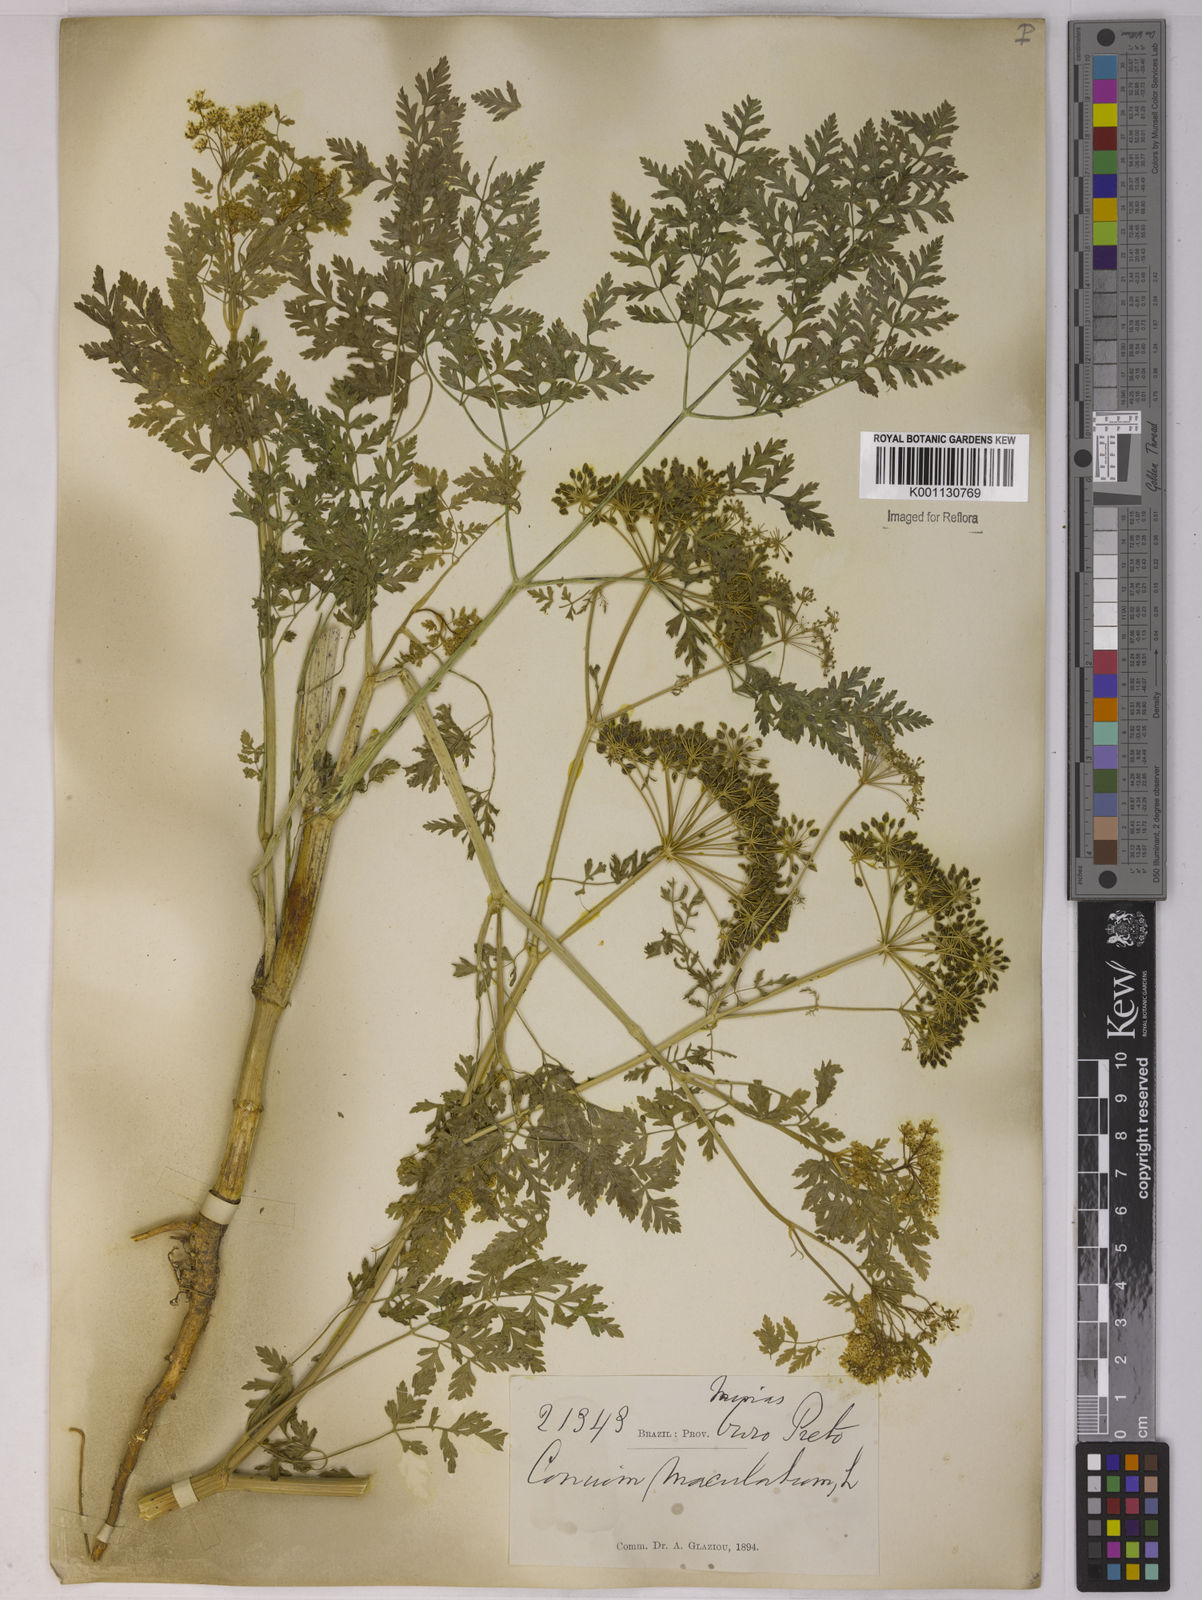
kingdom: Plantae
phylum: Tracheophyta
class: Magnoliopsida
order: Apiales
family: Apiaceae
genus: Conium
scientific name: Conium maculatum
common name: Hemlock
